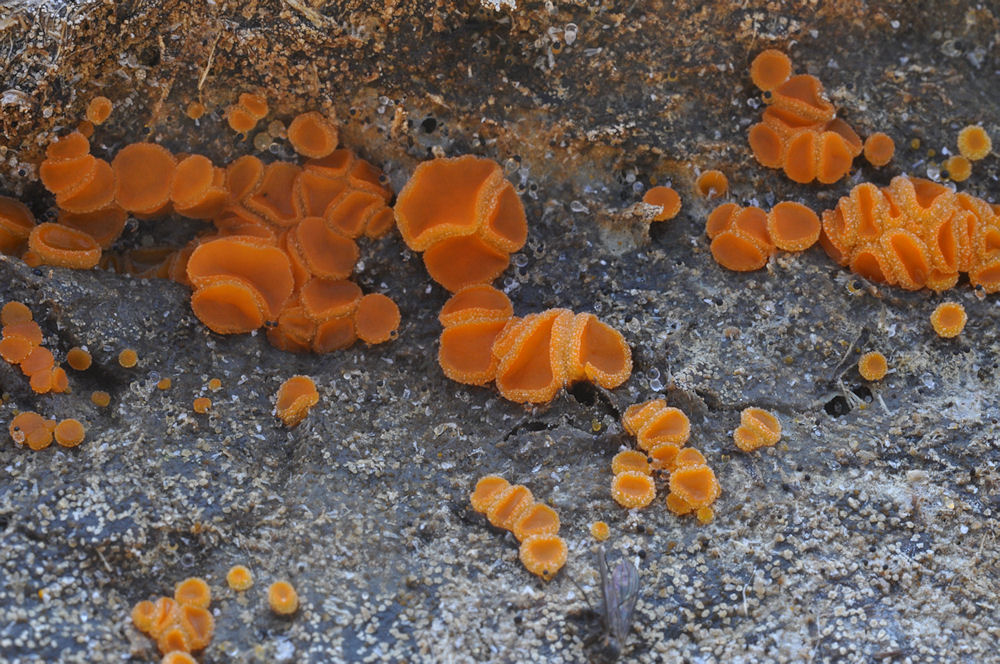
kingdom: Fungi
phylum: Ascomycota
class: Pezizomycetes
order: Pezizales
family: Pyronemataceae
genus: Cheilymenia
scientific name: Cheilymenia granulata
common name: møgbæger
